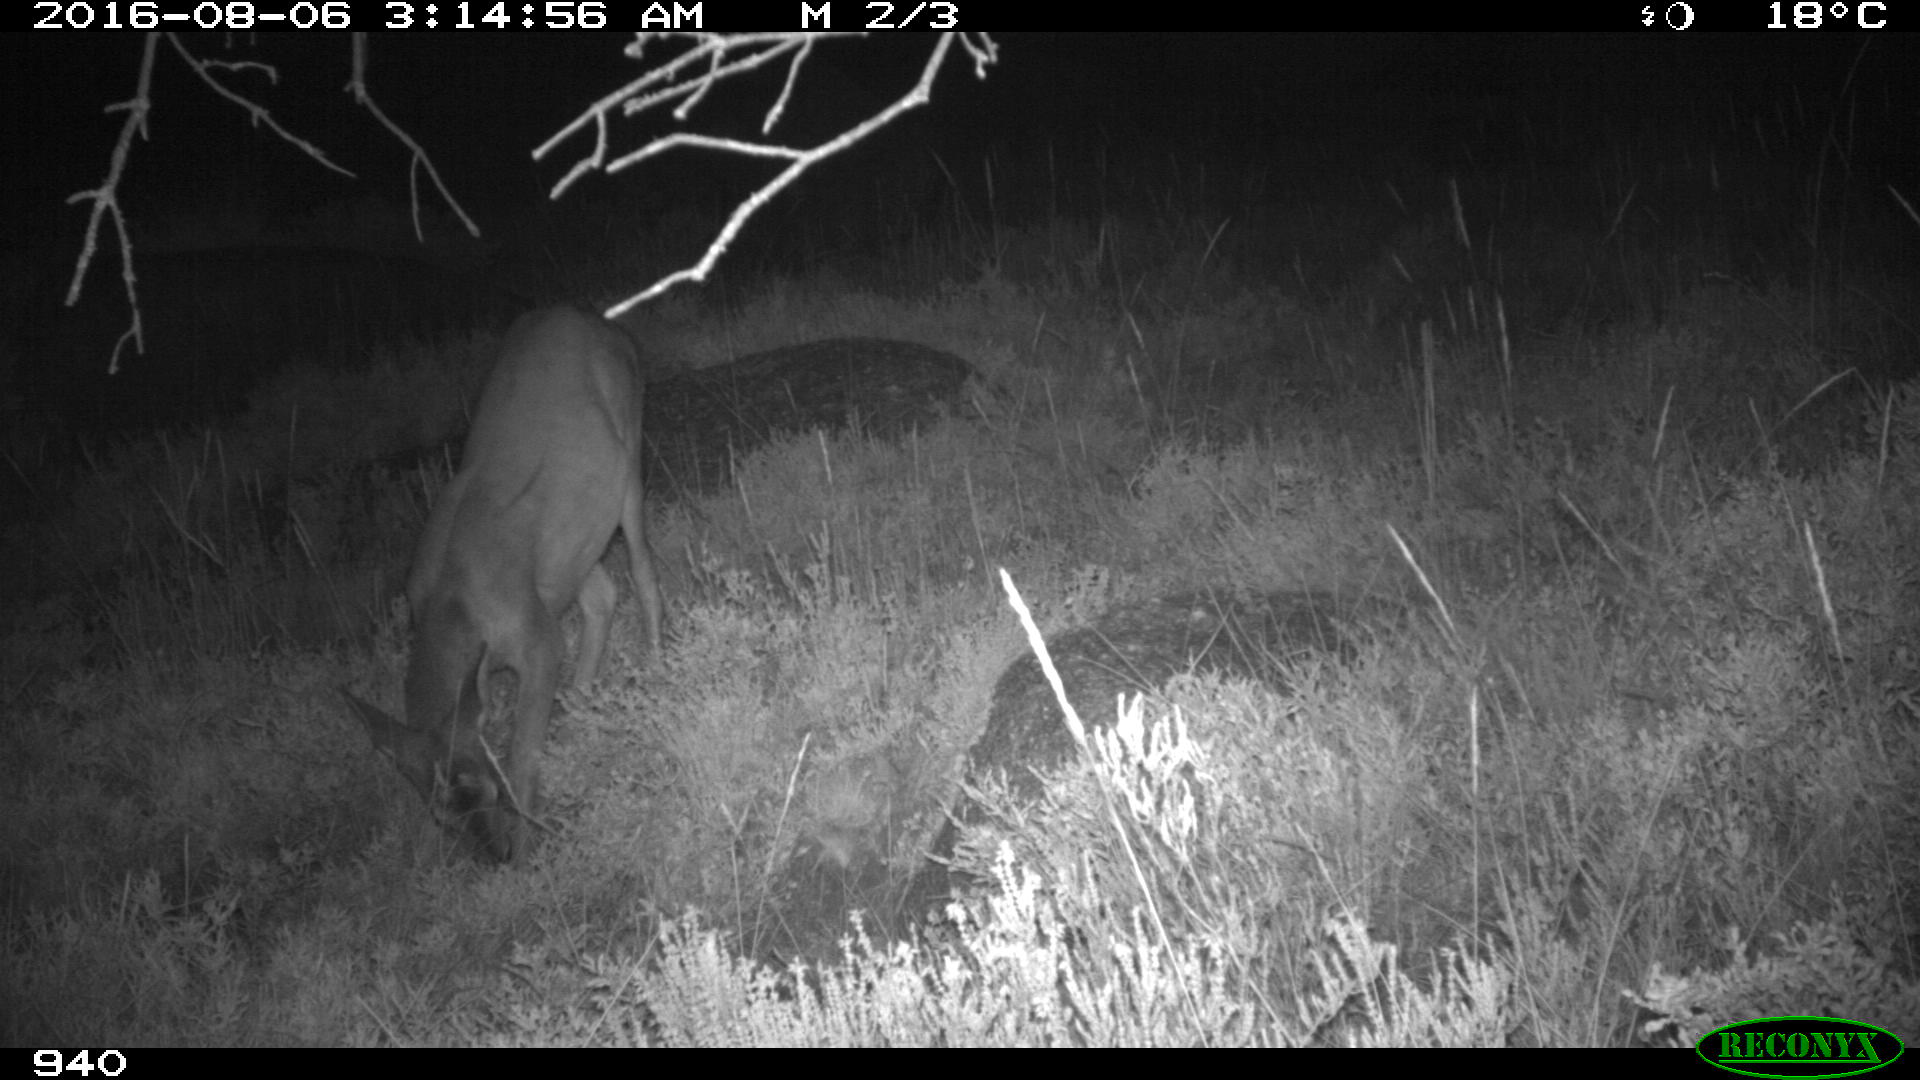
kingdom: Animalia
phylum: Chordata
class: Mammalia
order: Artiodactyla
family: Cervidae
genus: Capreolus
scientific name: Capreolus capreolus
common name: Western roe deer
